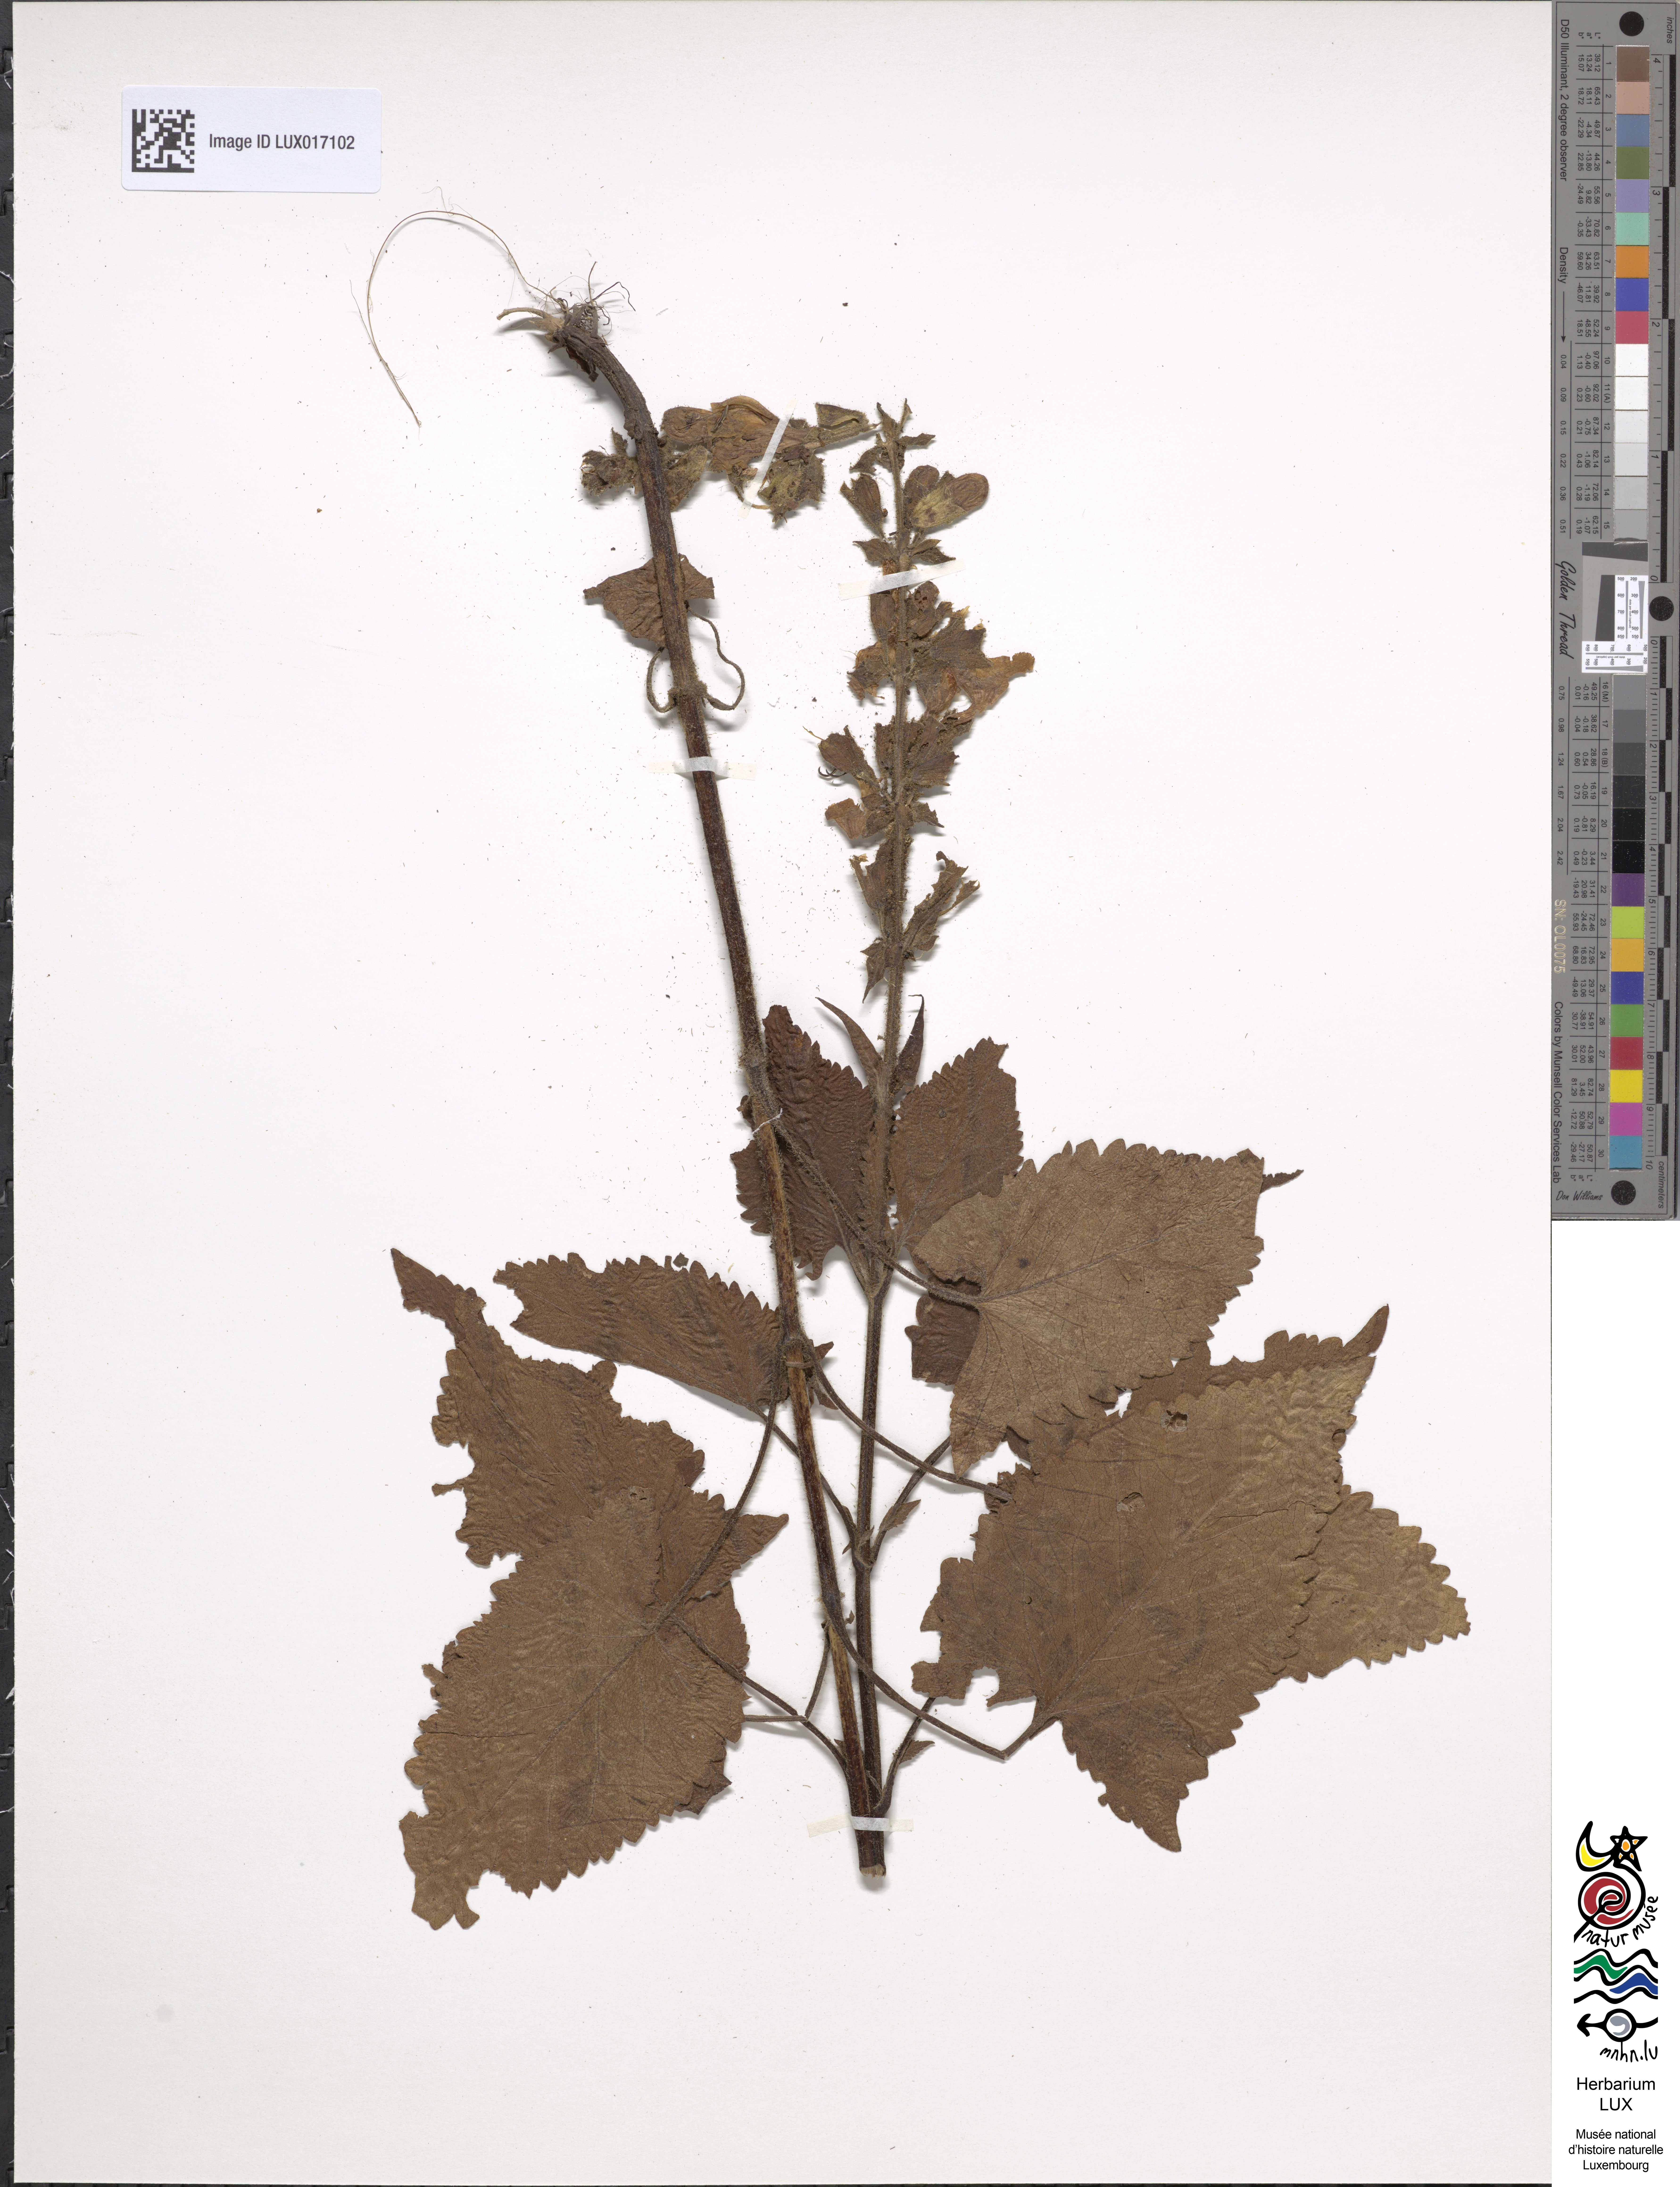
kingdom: Plantae
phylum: Tracheophyta
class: Magnoliopsida
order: Lamiales
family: Lamiaceae
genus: Salvia
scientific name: Salvia glutinosa
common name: Sticky clary
